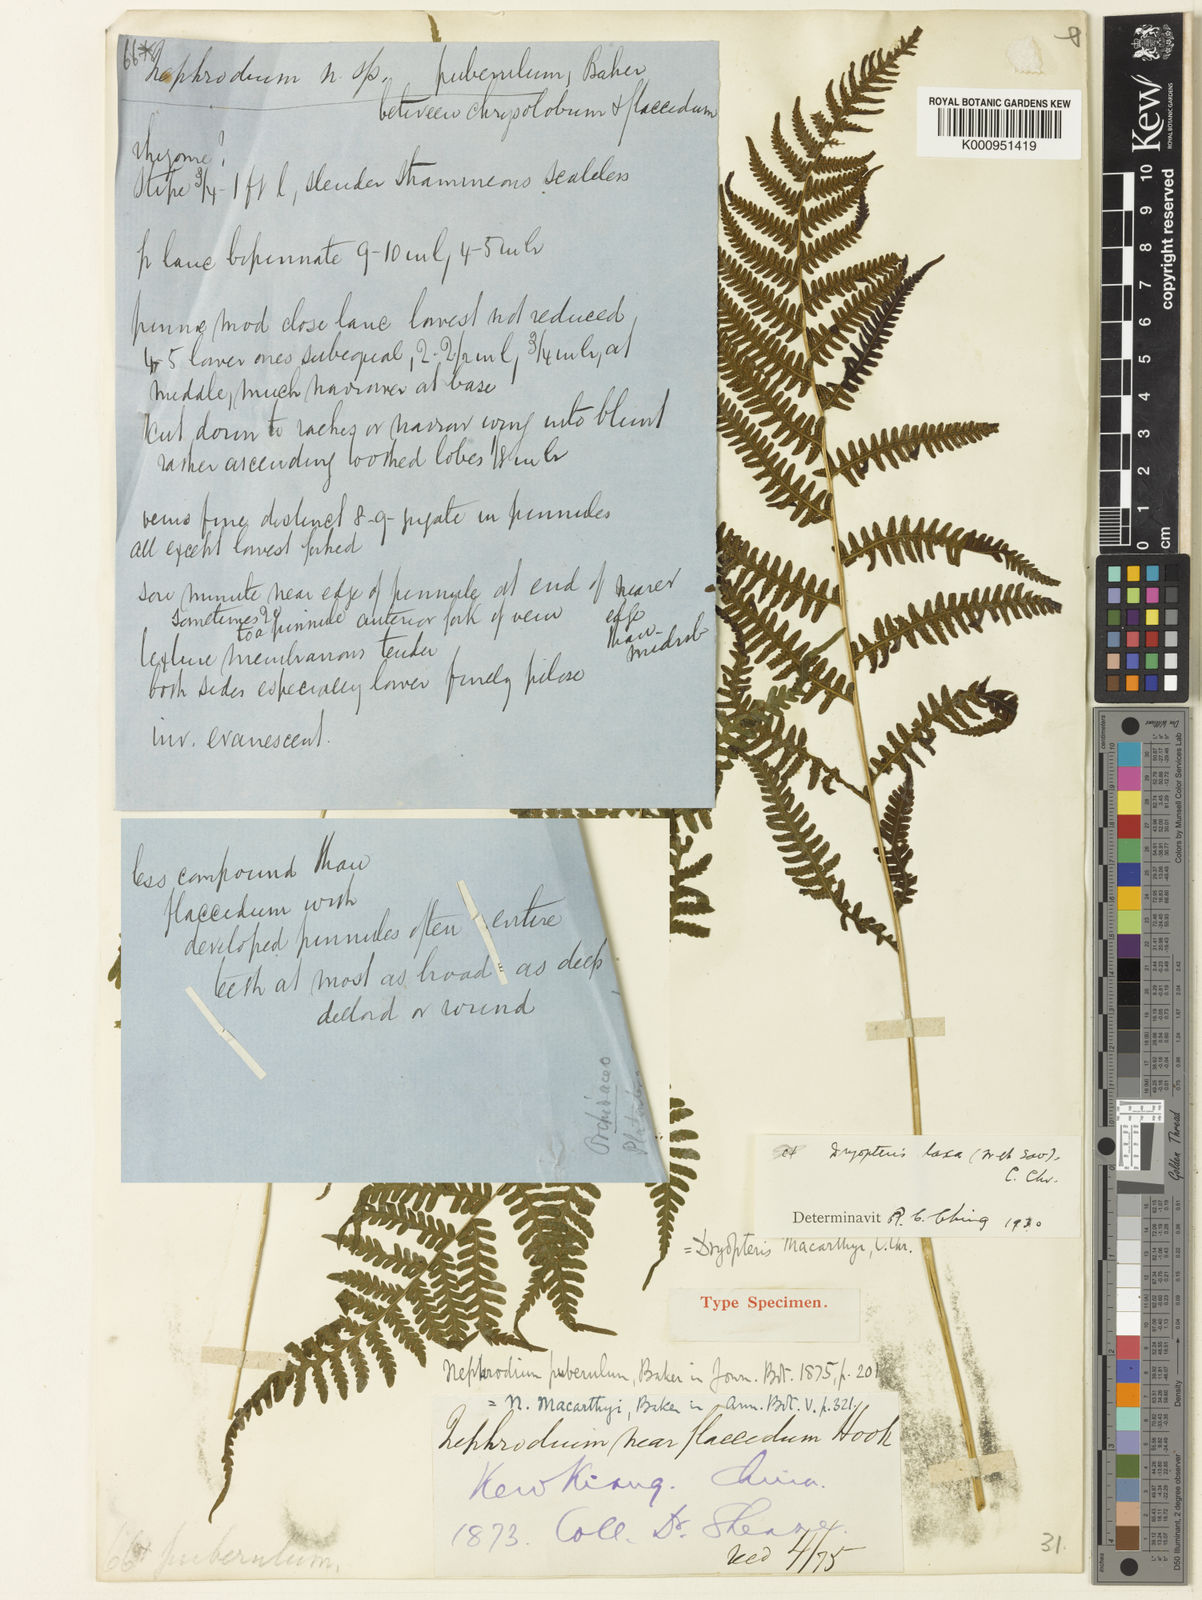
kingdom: Plantae
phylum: Tracheophyta
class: Polypodiopsida
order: Polypodiales
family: Thelypteridaceae
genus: Metathelypteris
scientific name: Metathelypteris laxa
